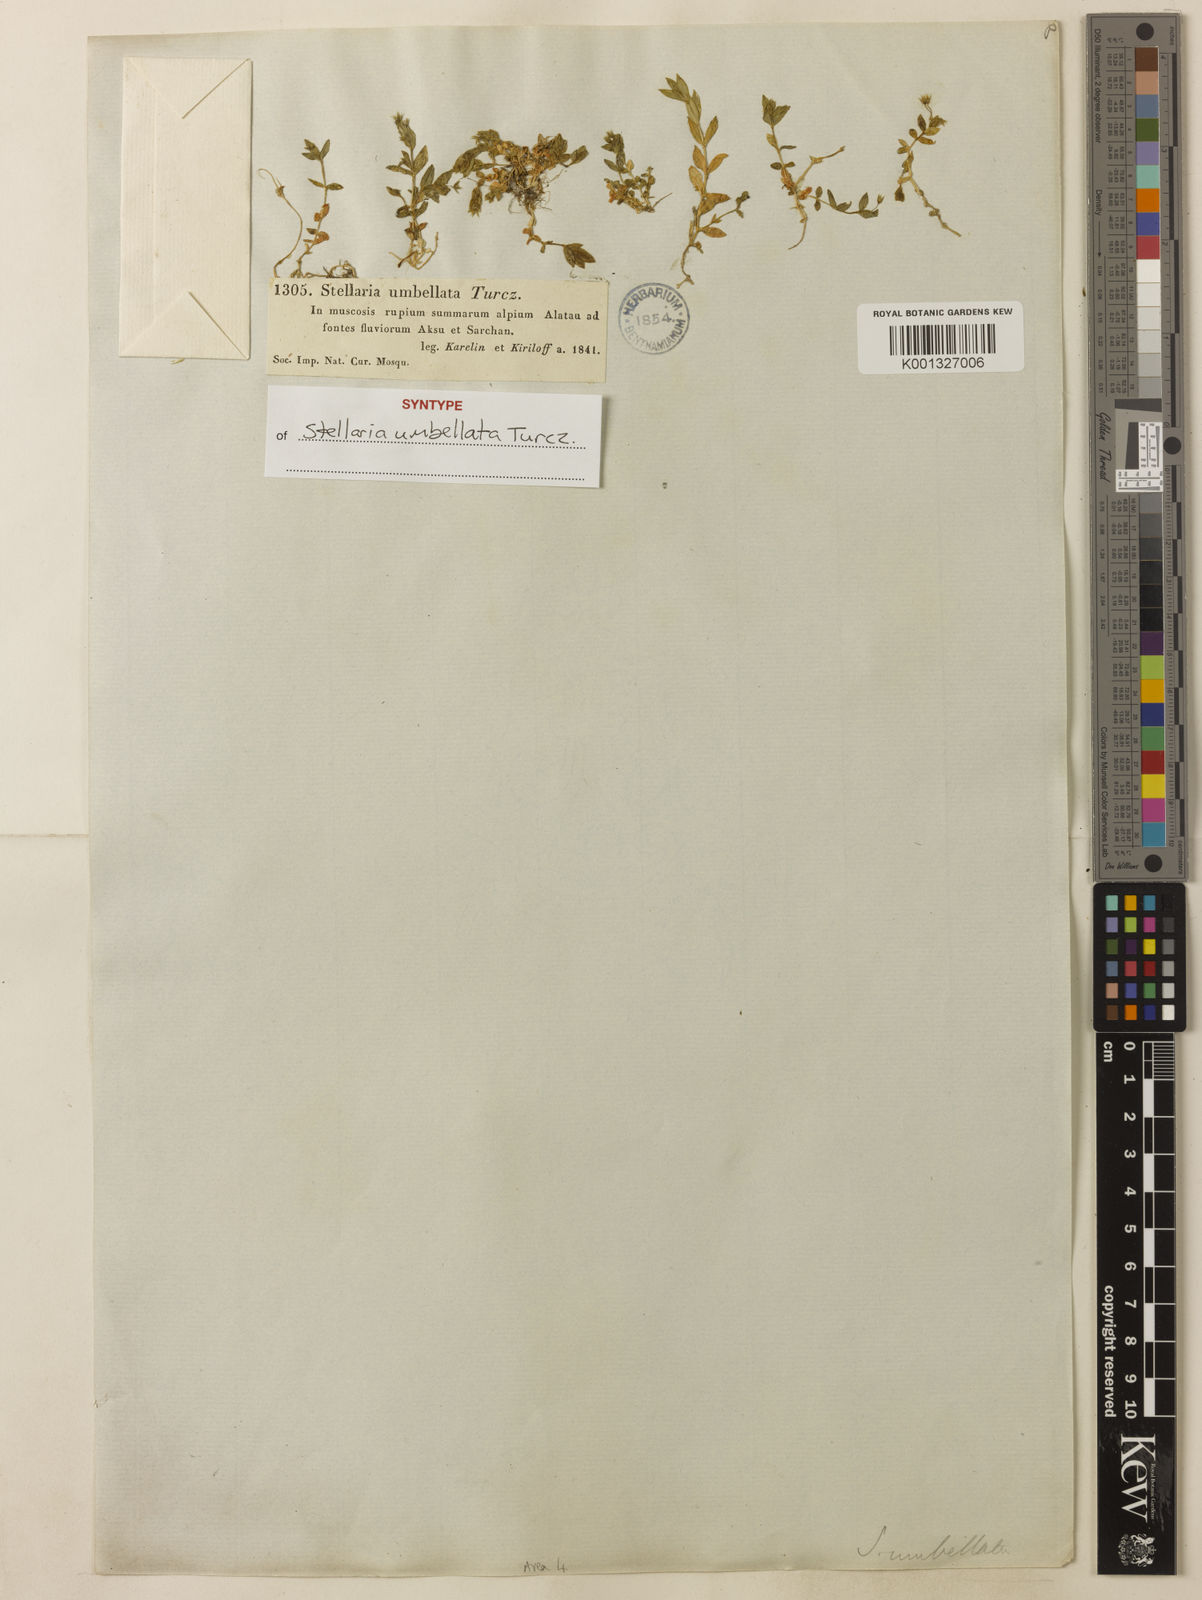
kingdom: Plantae
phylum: Tracheophyta
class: Magnoliopsida
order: Caryophyllales
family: Caryophyllaceae
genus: Stellaria
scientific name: Stellaria
